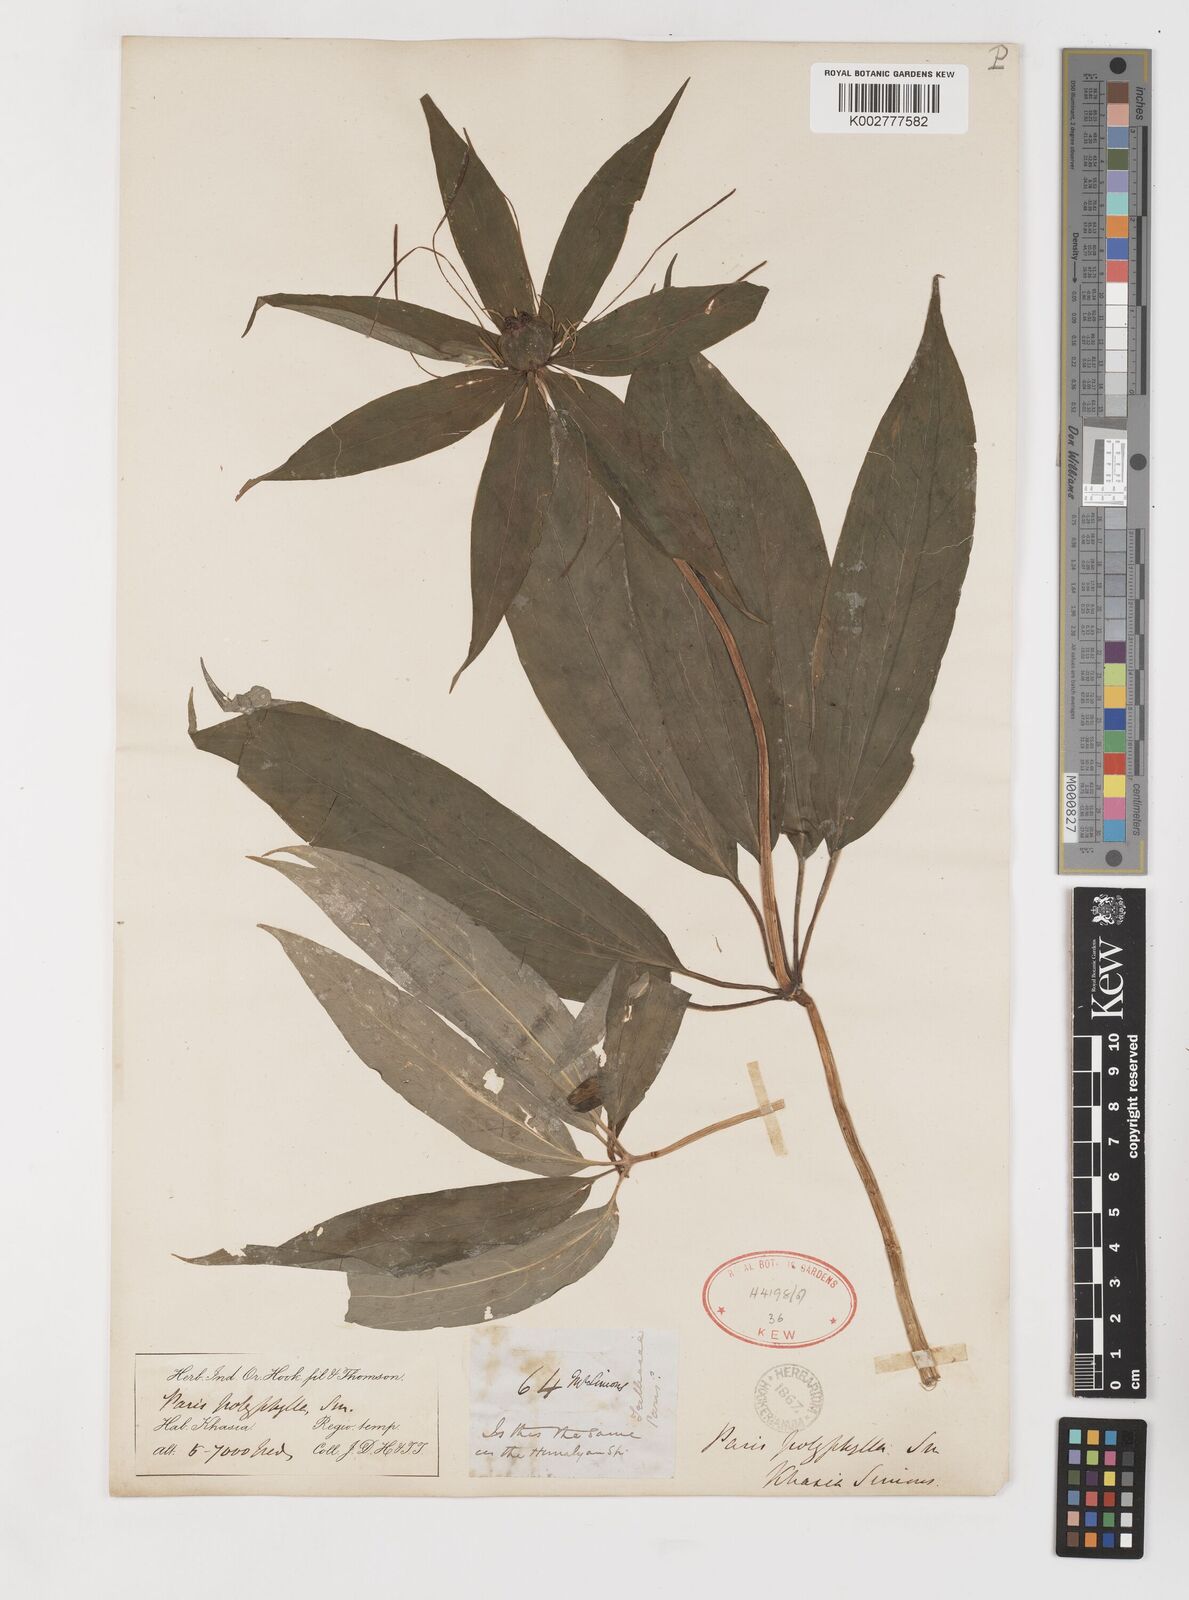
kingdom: Plantae
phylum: Tracheophyta
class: Liliopsida
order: Liliales
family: Melanthiaceae
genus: Paris
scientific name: Paris polyphylla
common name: Love apple
